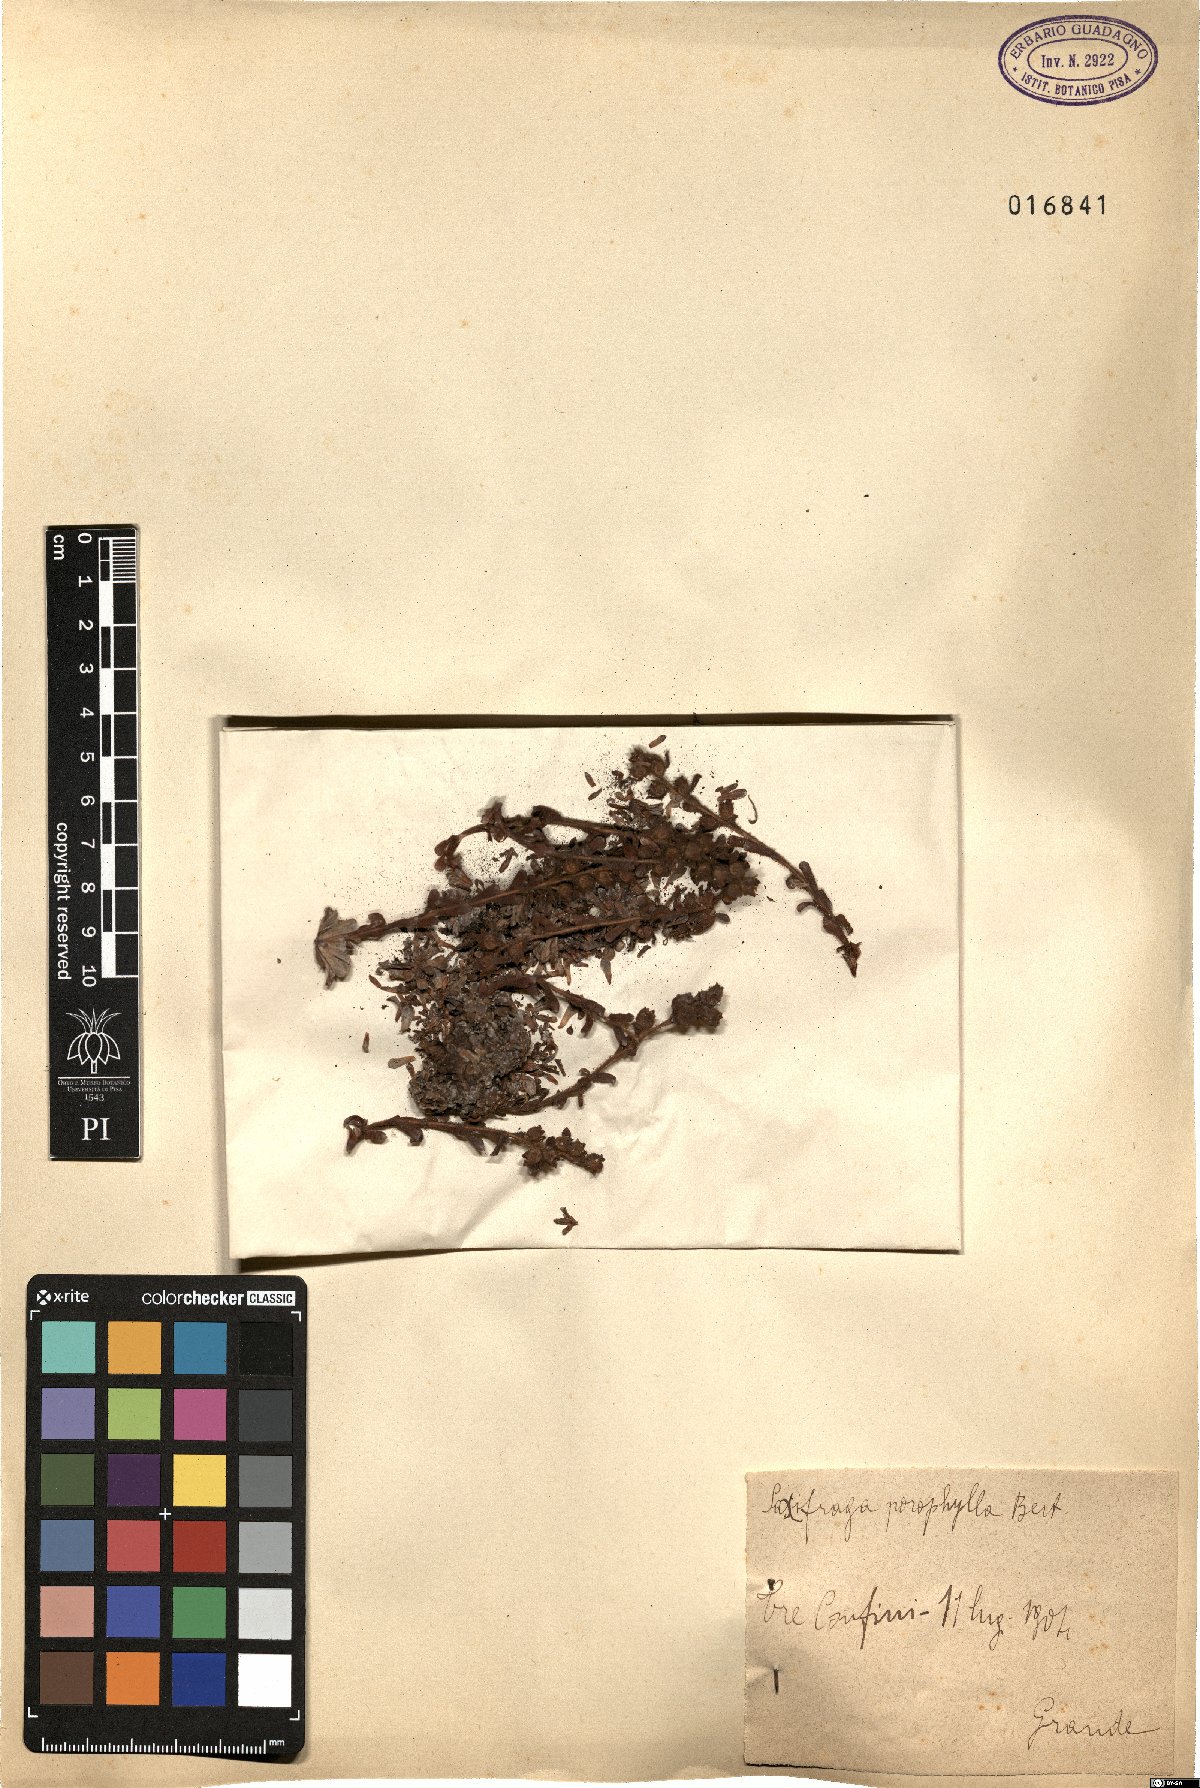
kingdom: Plantae
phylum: Tracheophyta
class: Magnoliopsida
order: Saxifragales
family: Saxifragaceae
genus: Saxifraga
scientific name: Saxifraga porophylla
